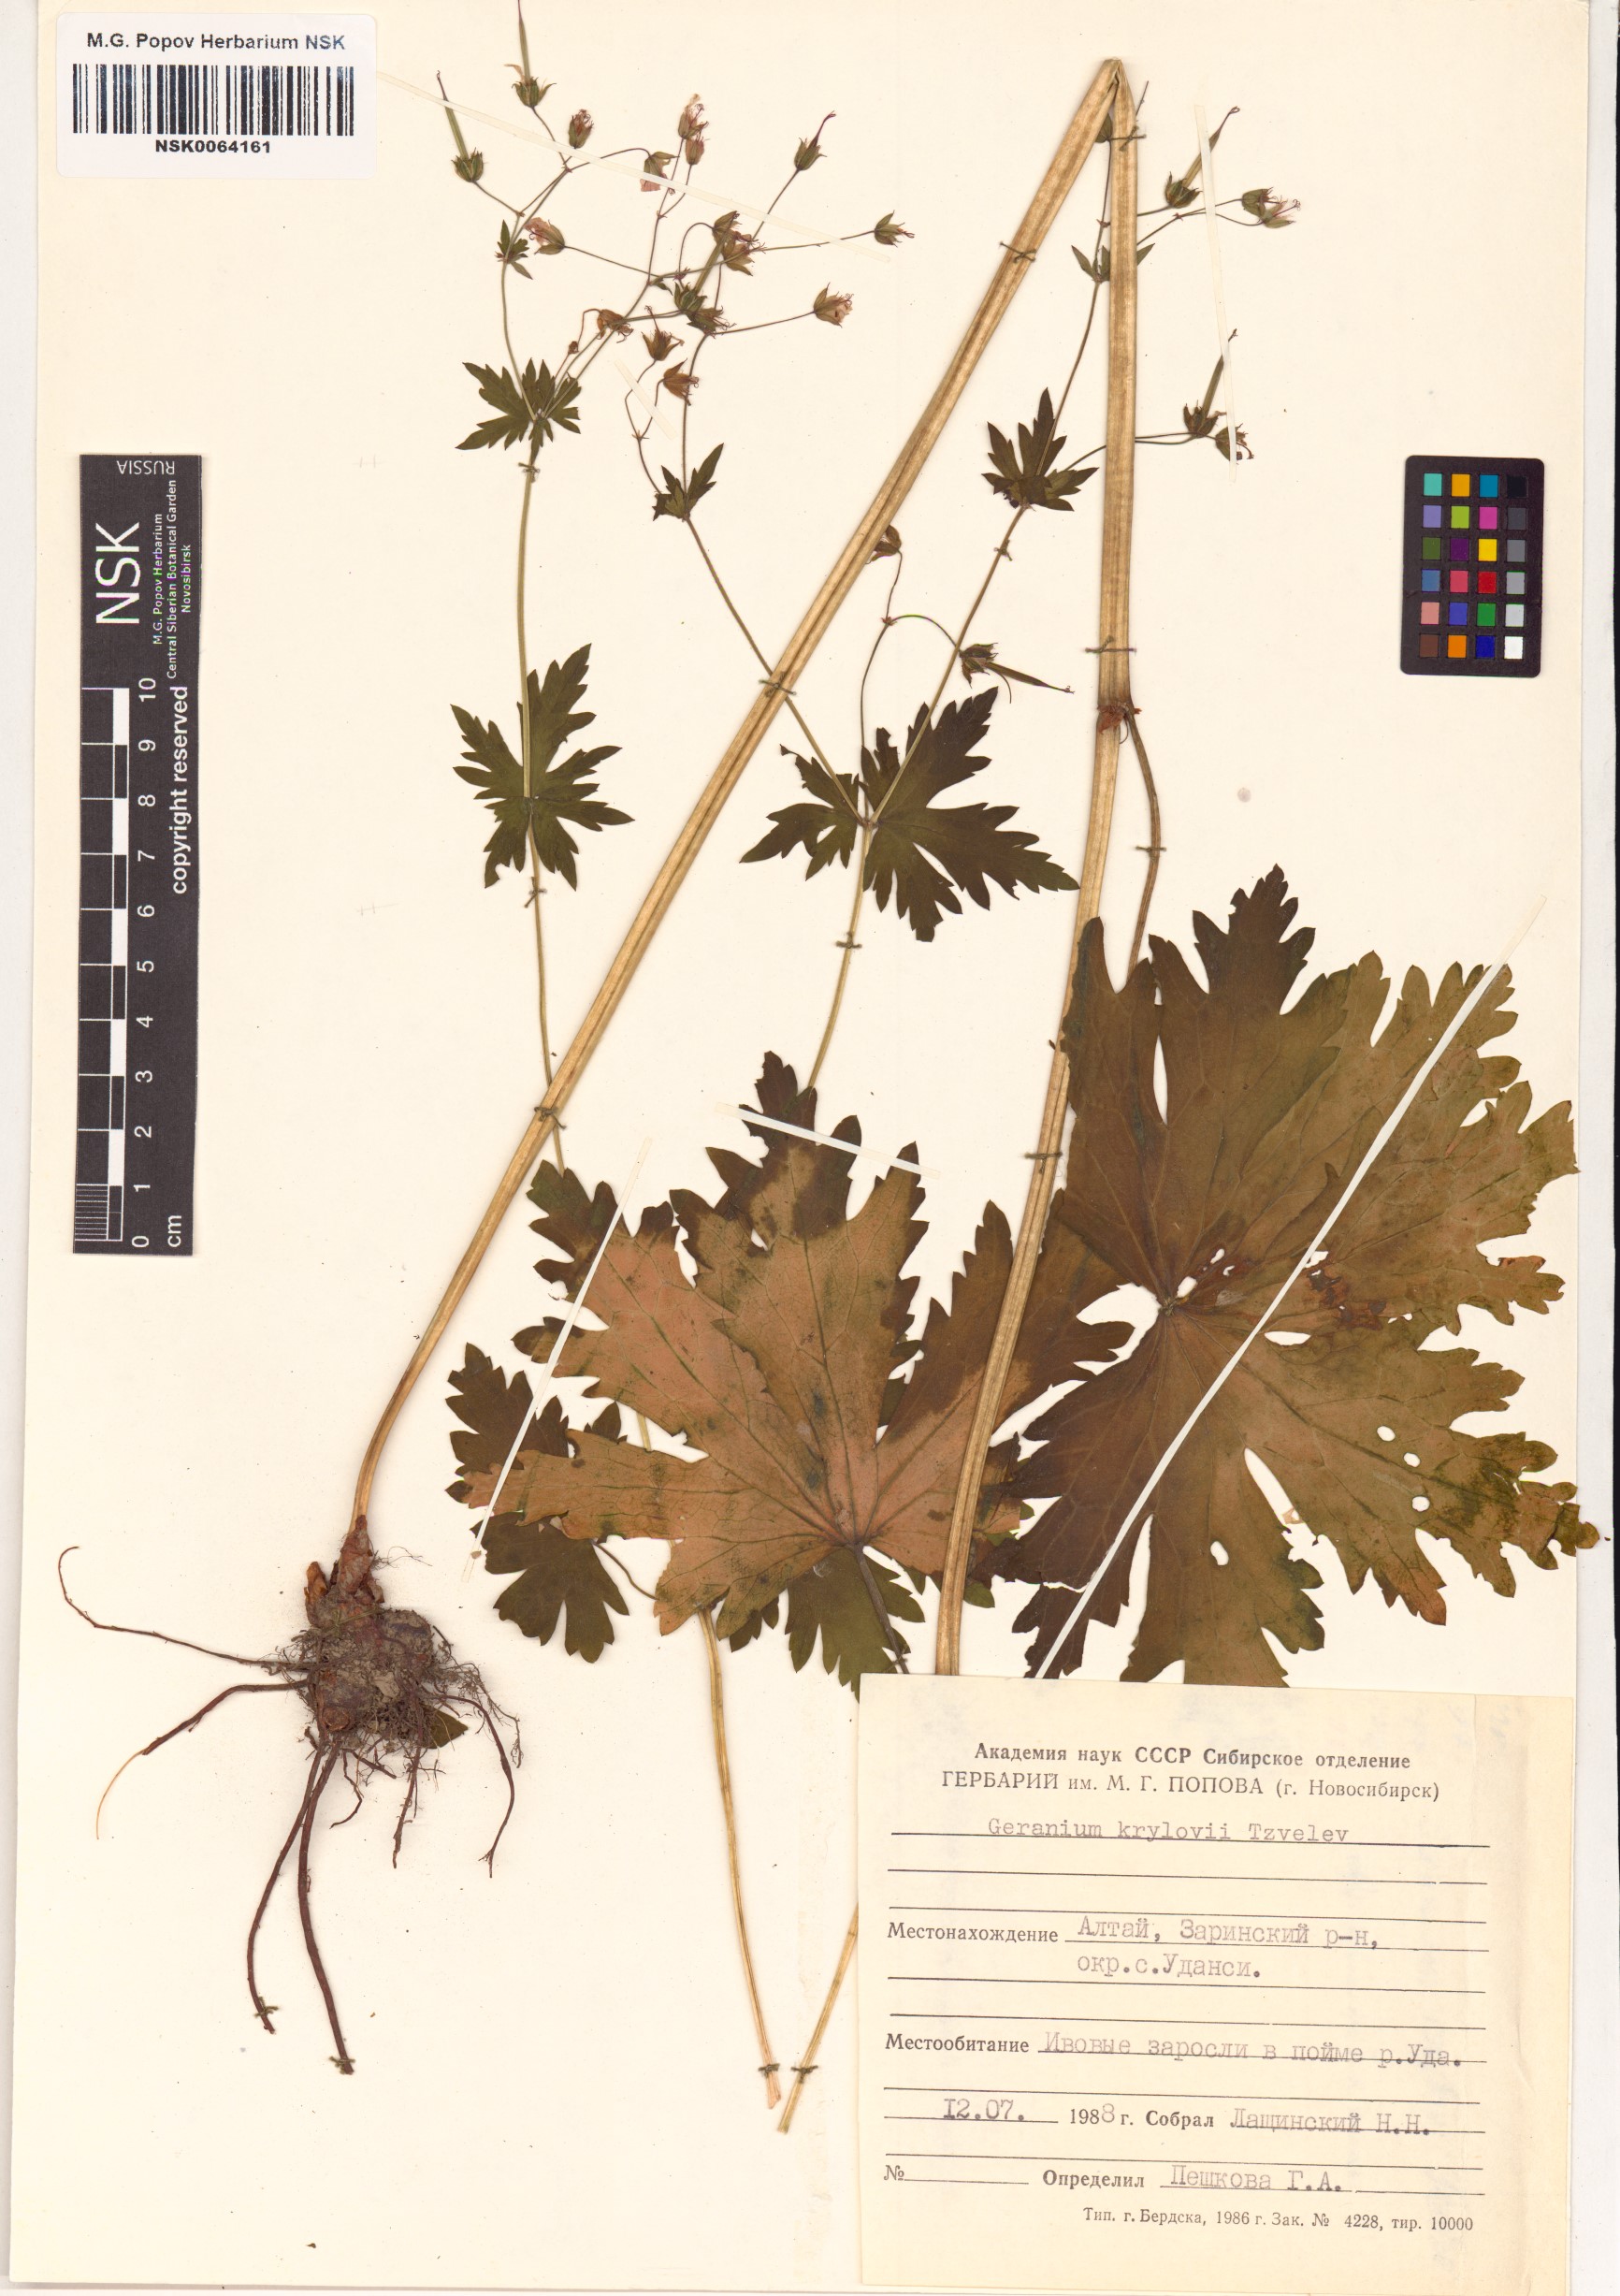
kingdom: Plantae
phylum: Tracheophyta
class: Magnoliopsida
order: Geraniales
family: Geraniaceae
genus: Geranium
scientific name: Geranium sylvaticum
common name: Wood crane's-bill
